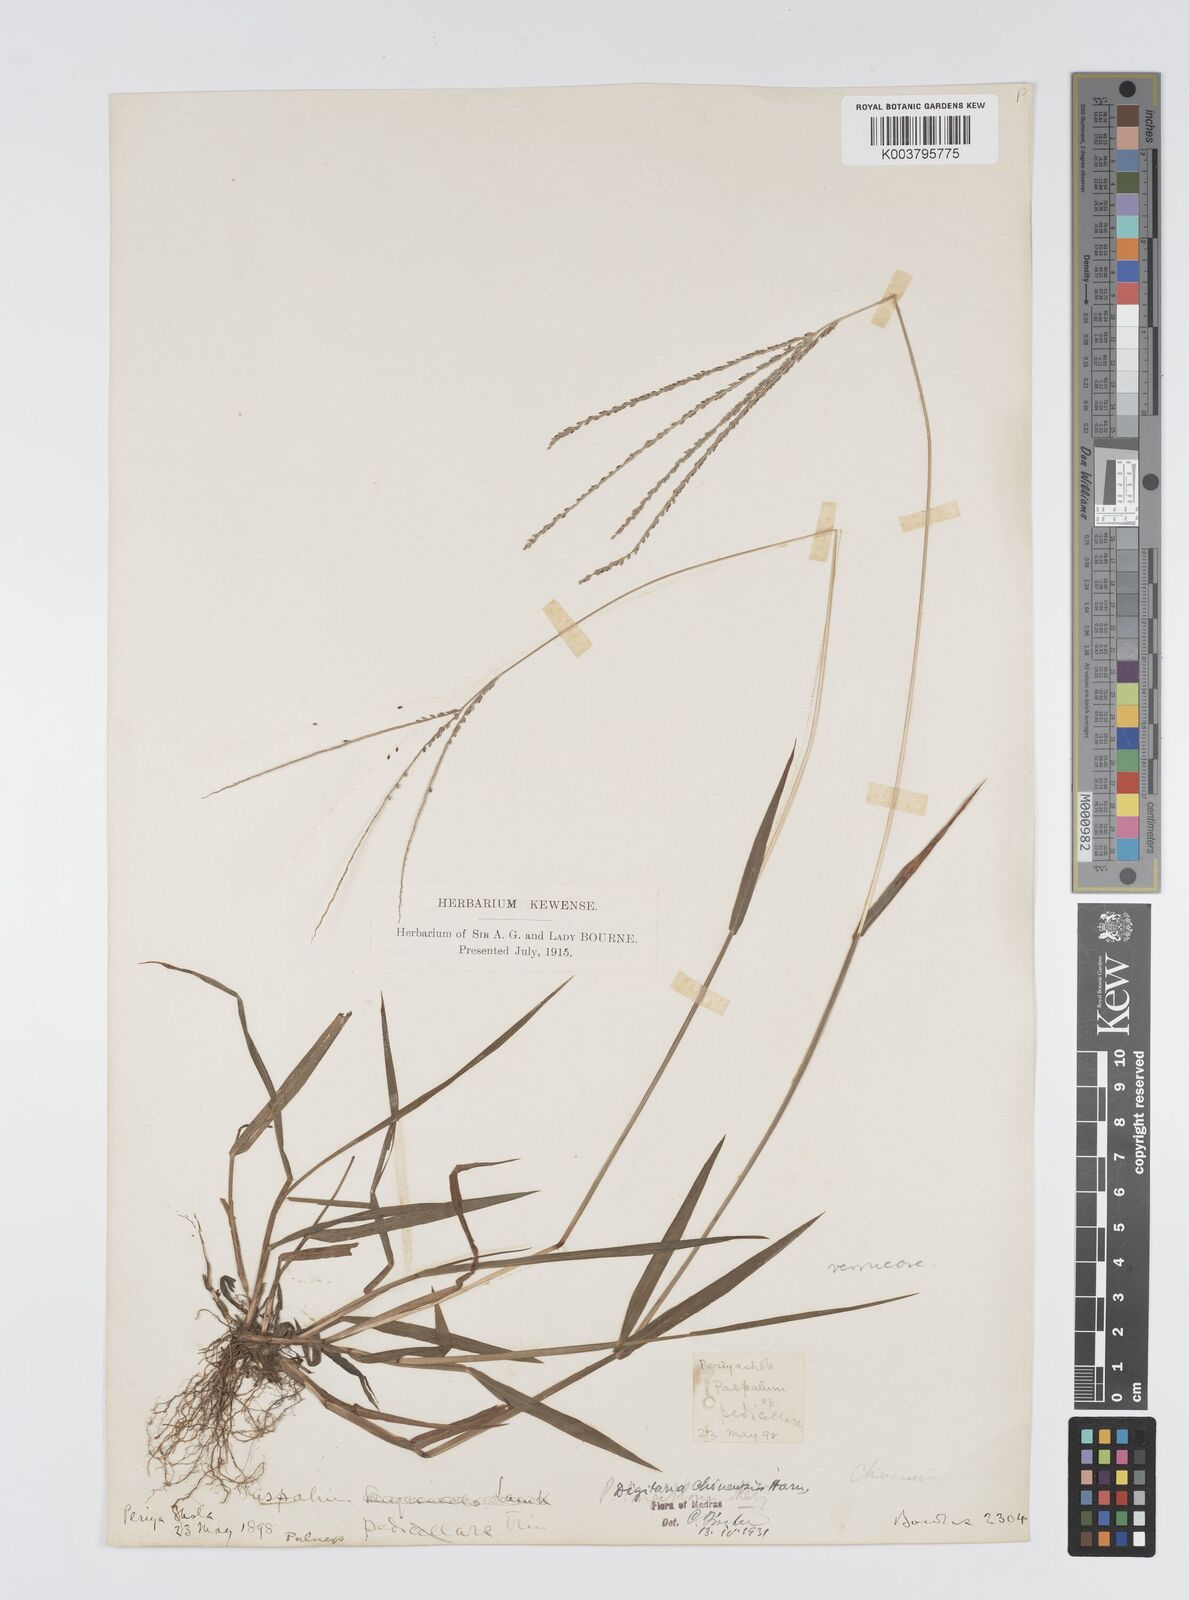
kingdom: Plantae
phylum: Tracheophyta
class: Liliopsida
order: Poales
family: Poaceae
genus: Digitaria
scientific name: Digitaria violascens
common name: Violet crabgrass
